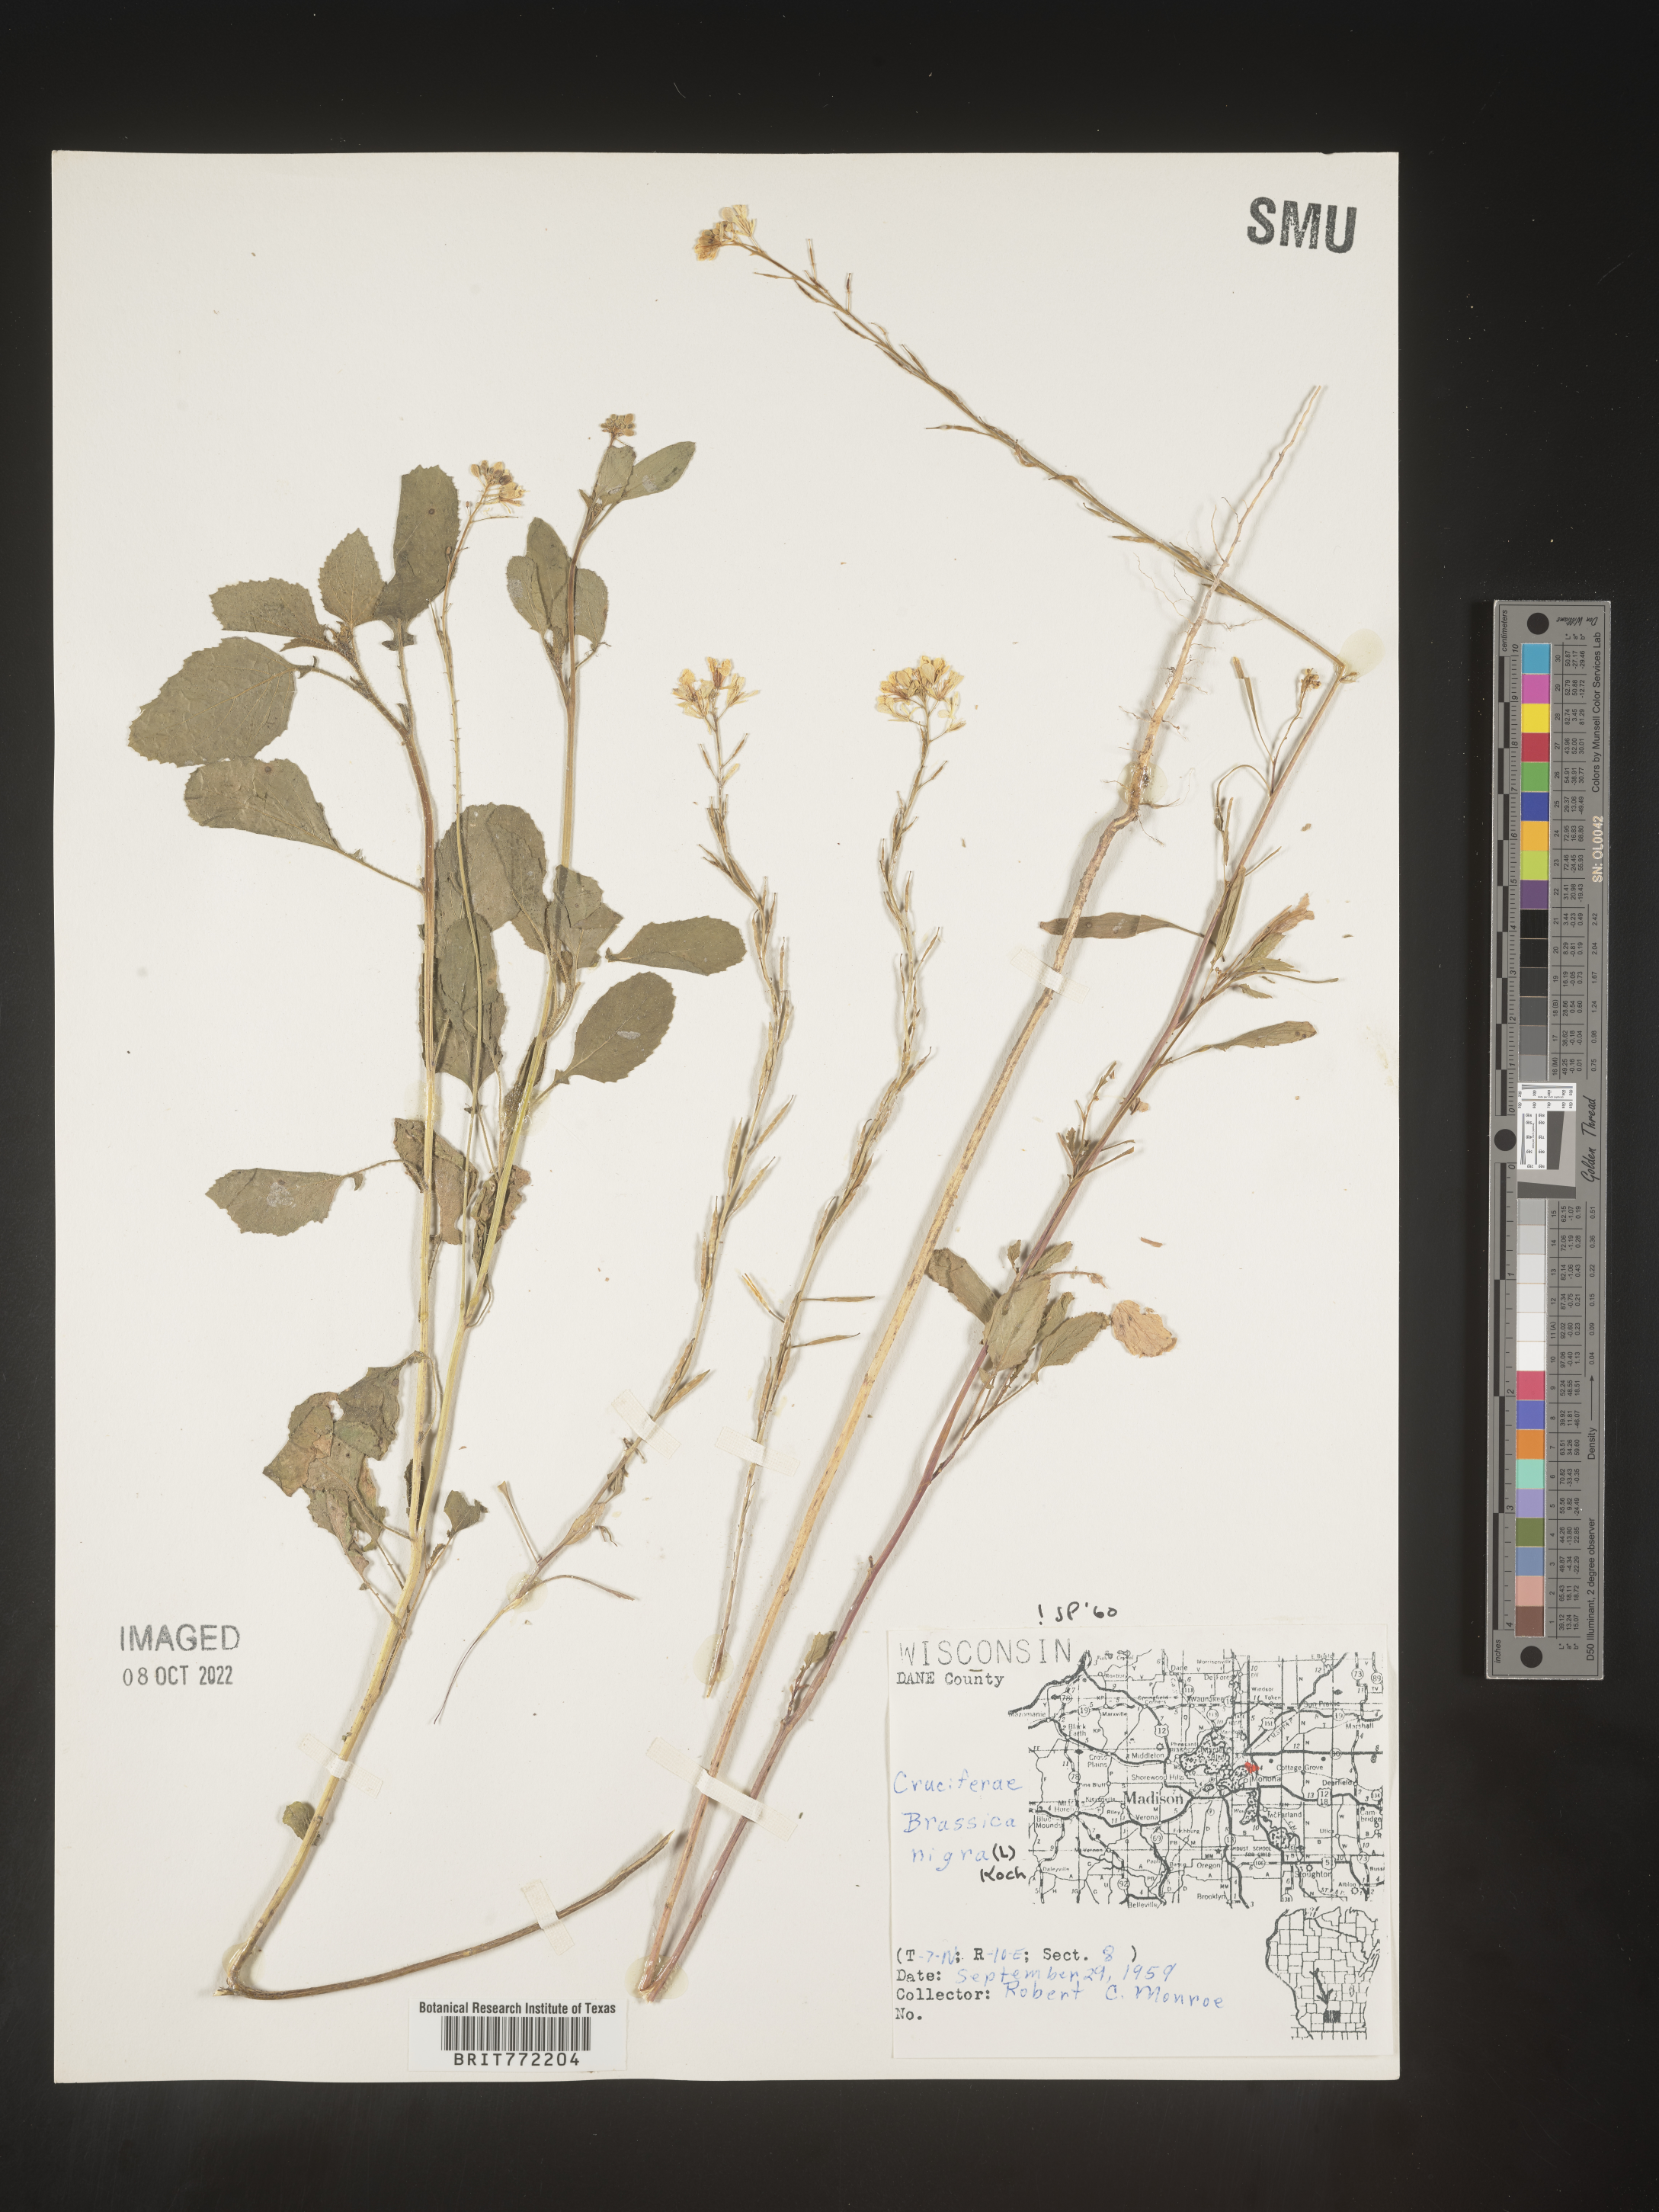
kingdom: Plantae
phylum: Tracheophyta
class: Magnoliopsida
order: Brassicales
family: Brassicaceae
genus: Brassica
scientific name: Brassica nigra
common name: Black mustard
